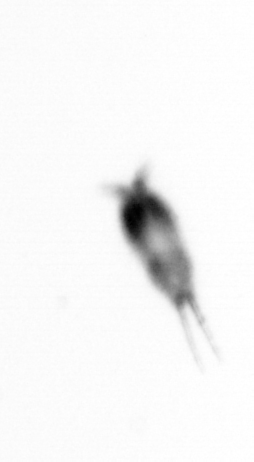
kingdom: Animalia
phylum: Arthropoda
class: Copepoda
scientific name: Copepoda
